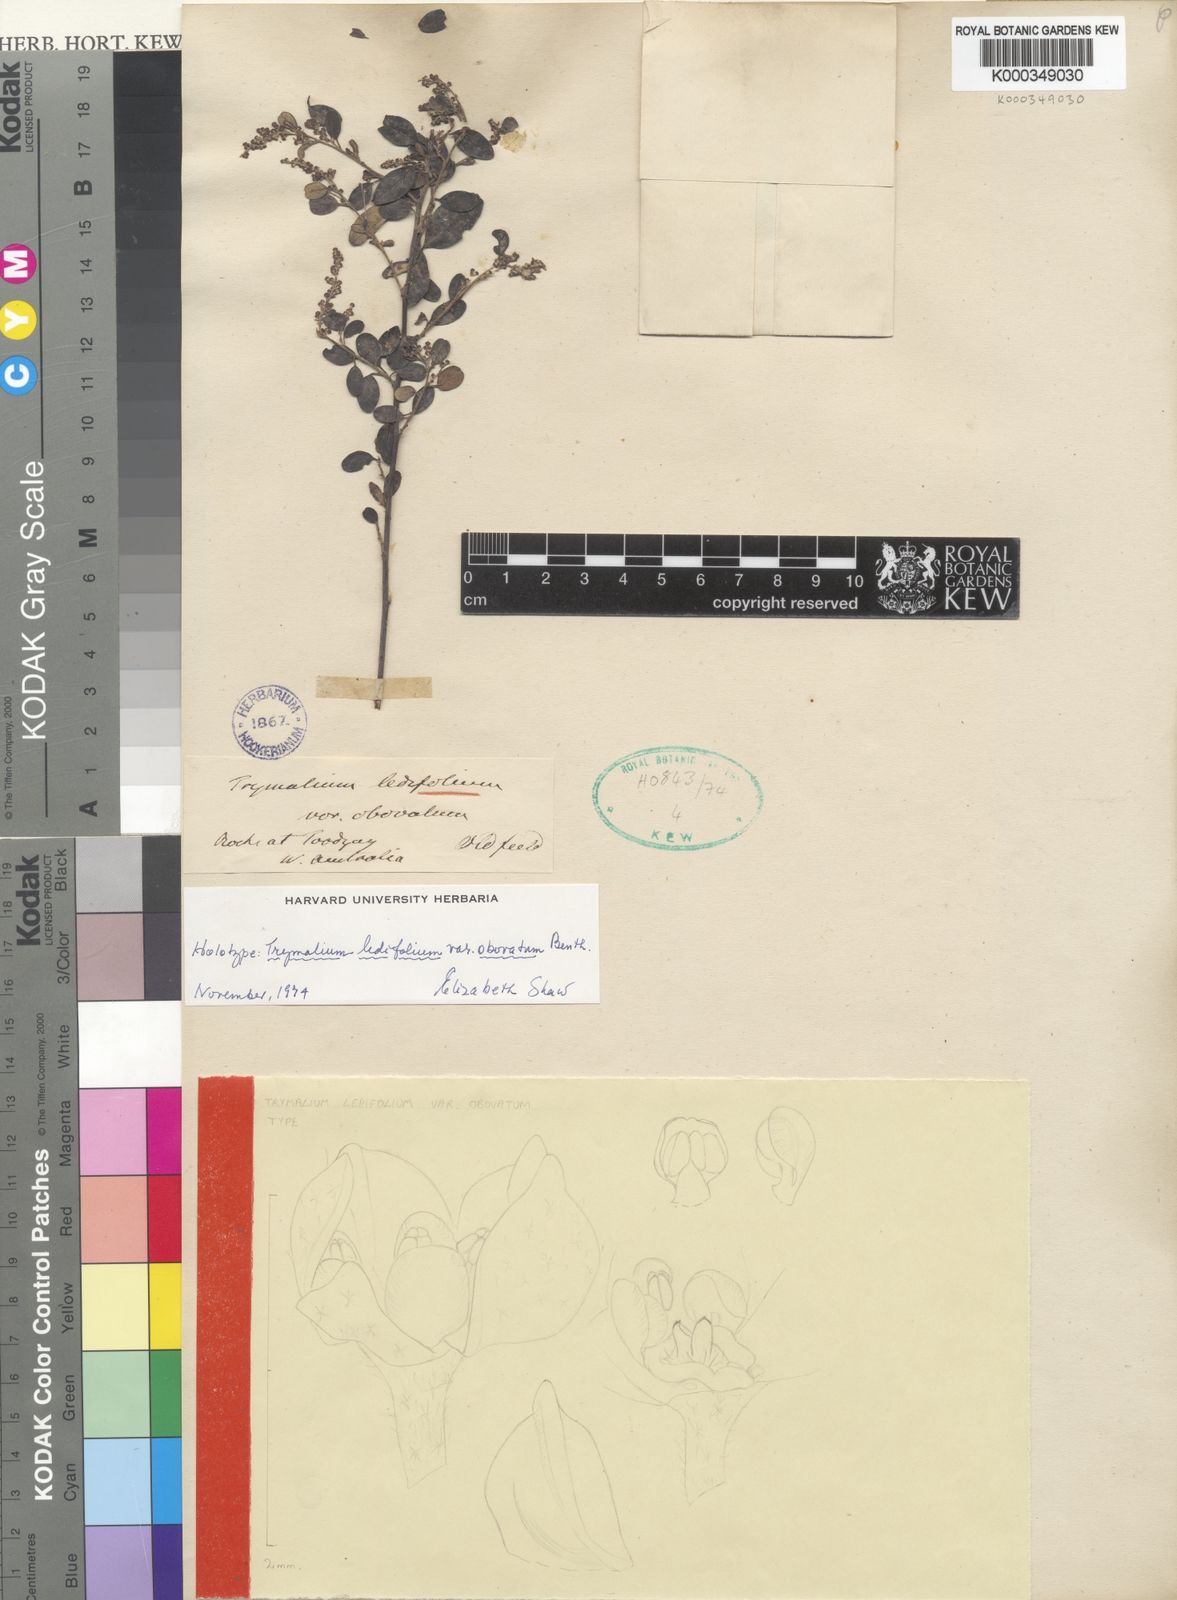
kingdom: Plantae
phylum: Tracheophyta
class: Magnoliopsida
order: Rosales
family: Rhamnaceae
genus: Spyridium
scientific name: Spyridium obovatum
